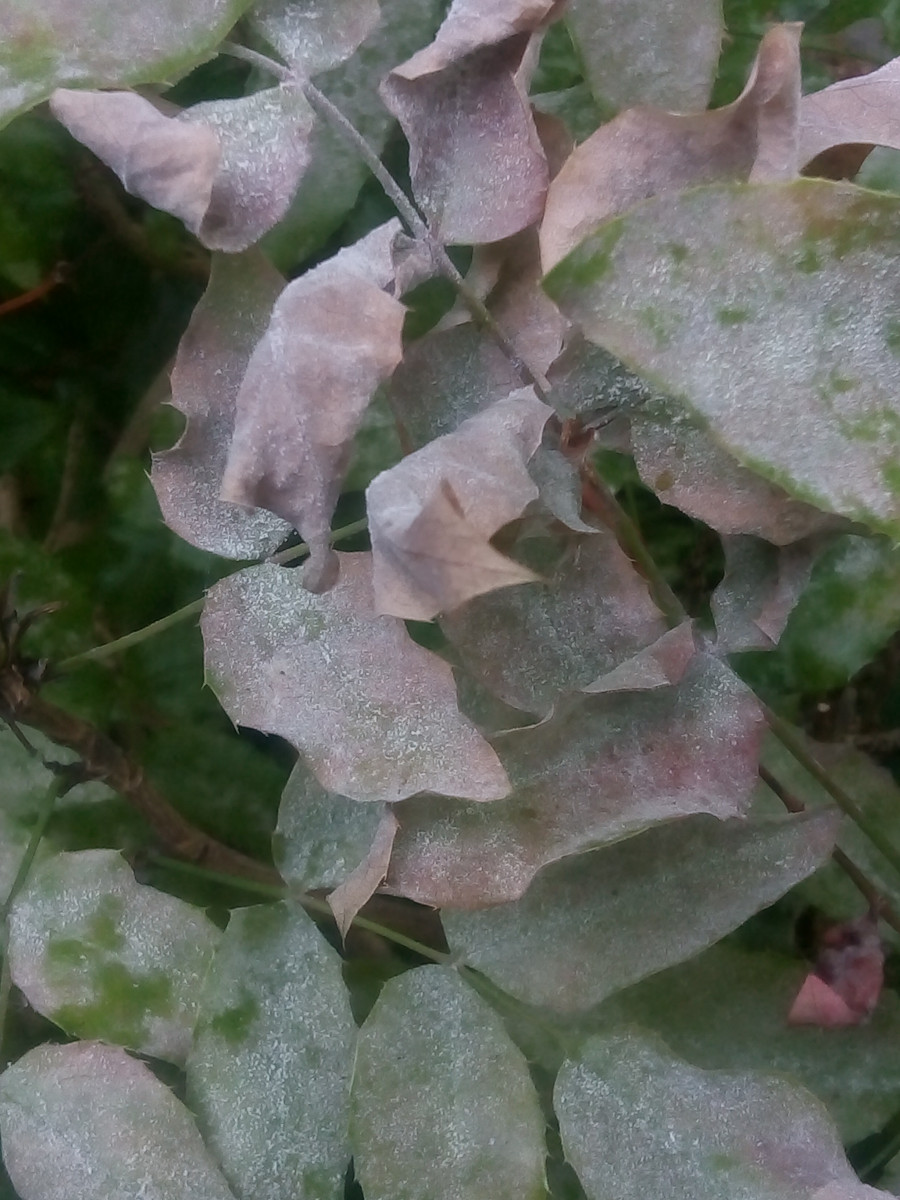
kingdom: Fungi
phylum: Ascomycota
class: Leotiomycetes
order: Helotiales
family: Erysiphaceae
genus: Erysiphe
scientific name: Erysiphe berberidis
